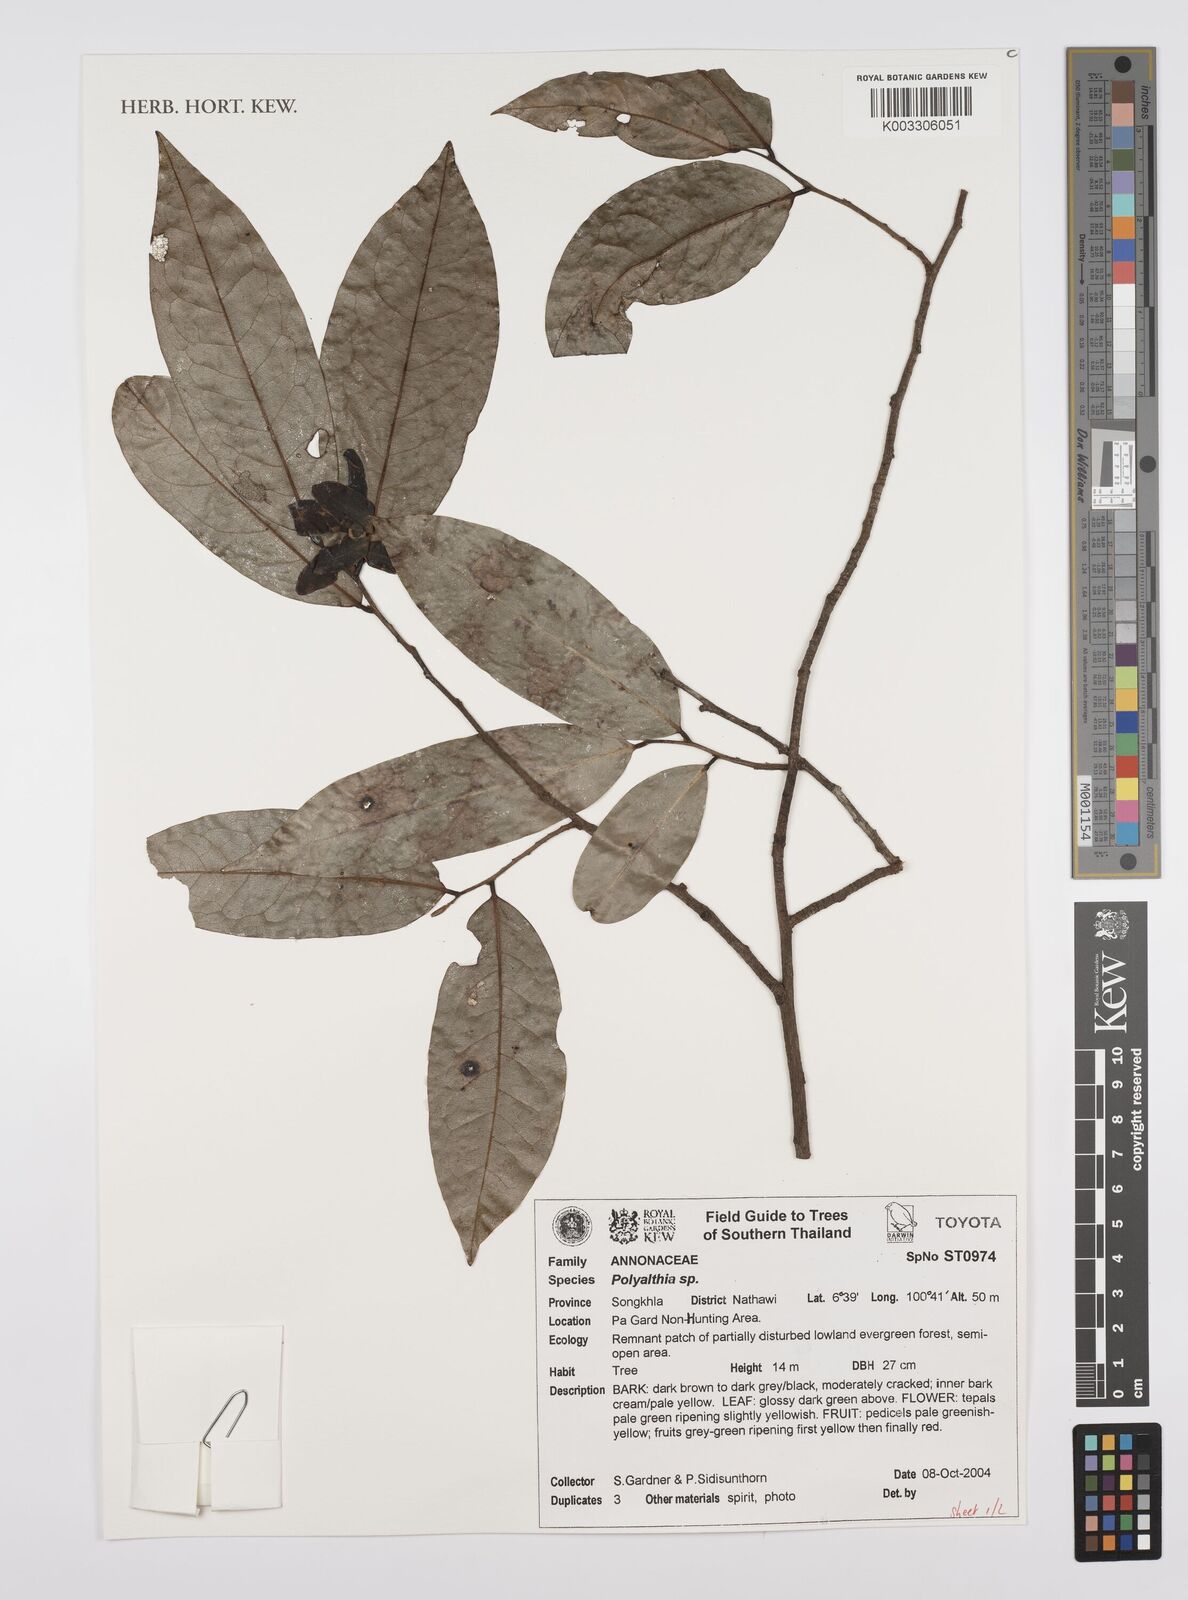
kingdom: Plantae
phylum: Tracheophyta
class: Magnoliopsida
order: Magnoliales
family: Annonaceae
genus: Huberantha
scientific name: Huberantha
